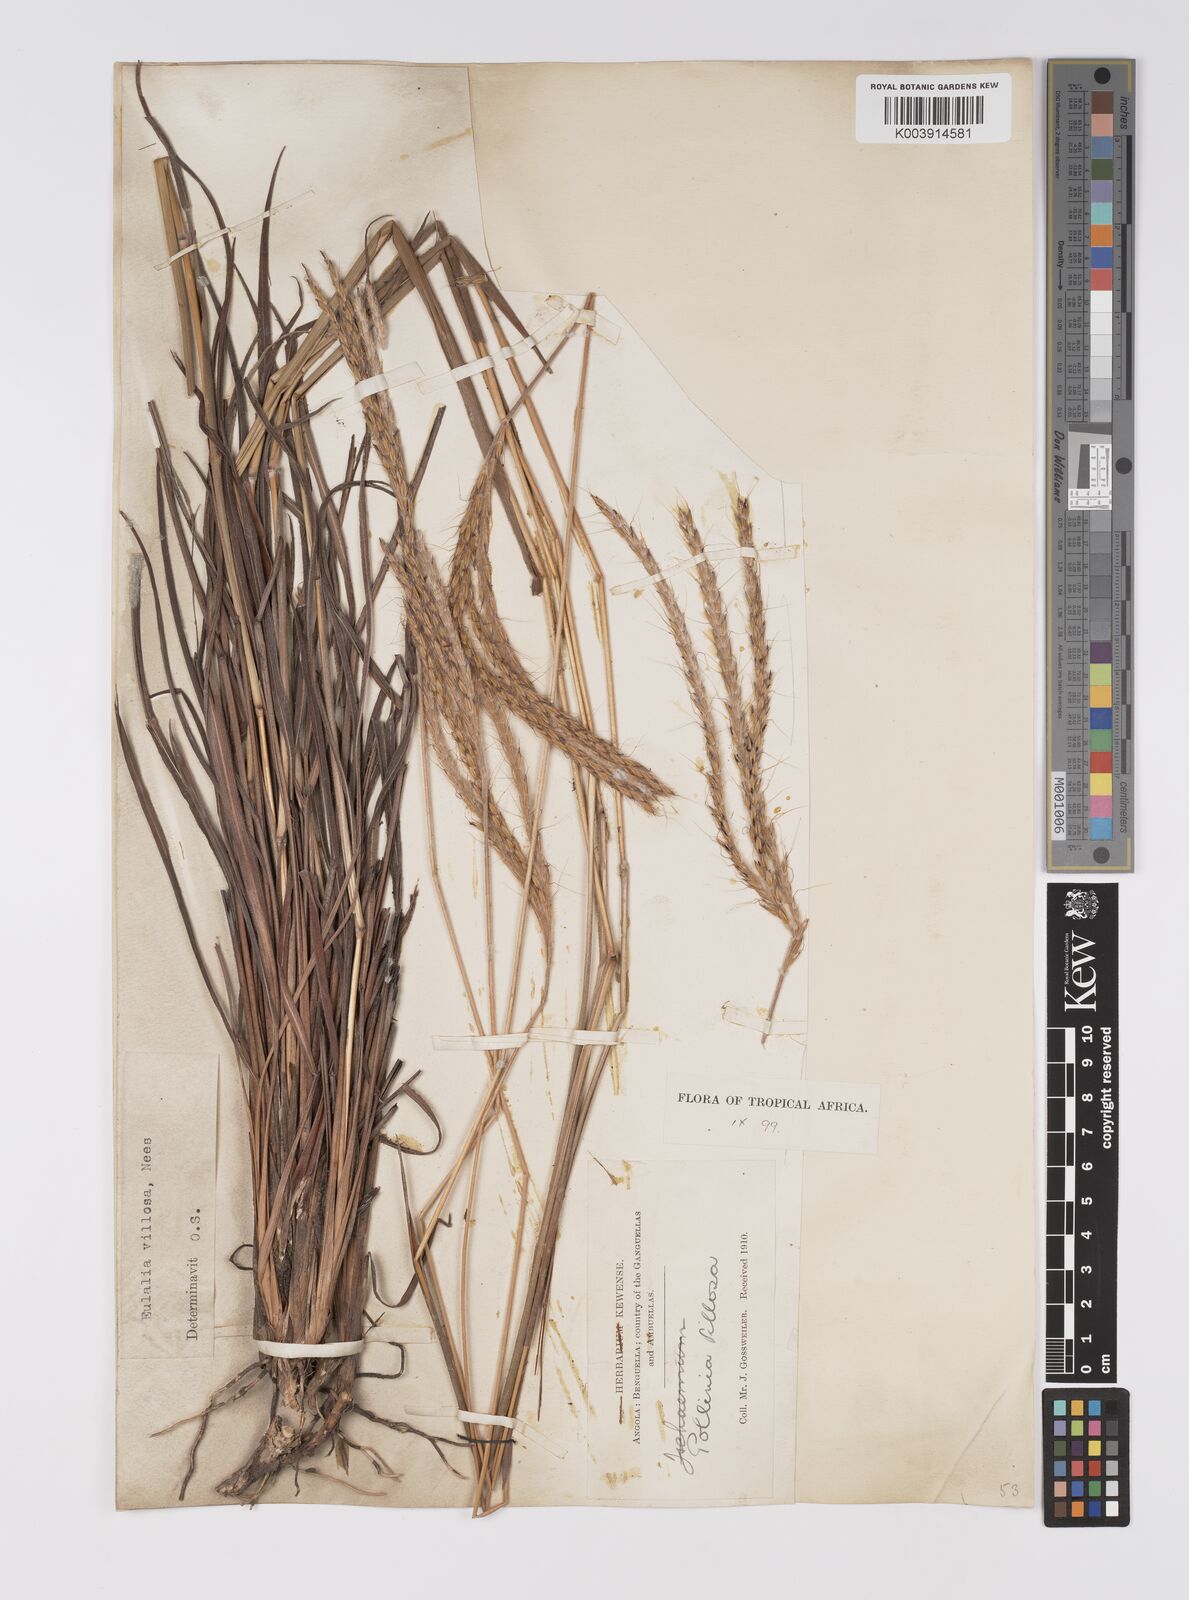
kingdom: Plantae
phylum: Tracheophyta
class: Liliopsida
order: Poales
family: Poaceae
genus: Eulalia
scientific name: Eulalia villosa
